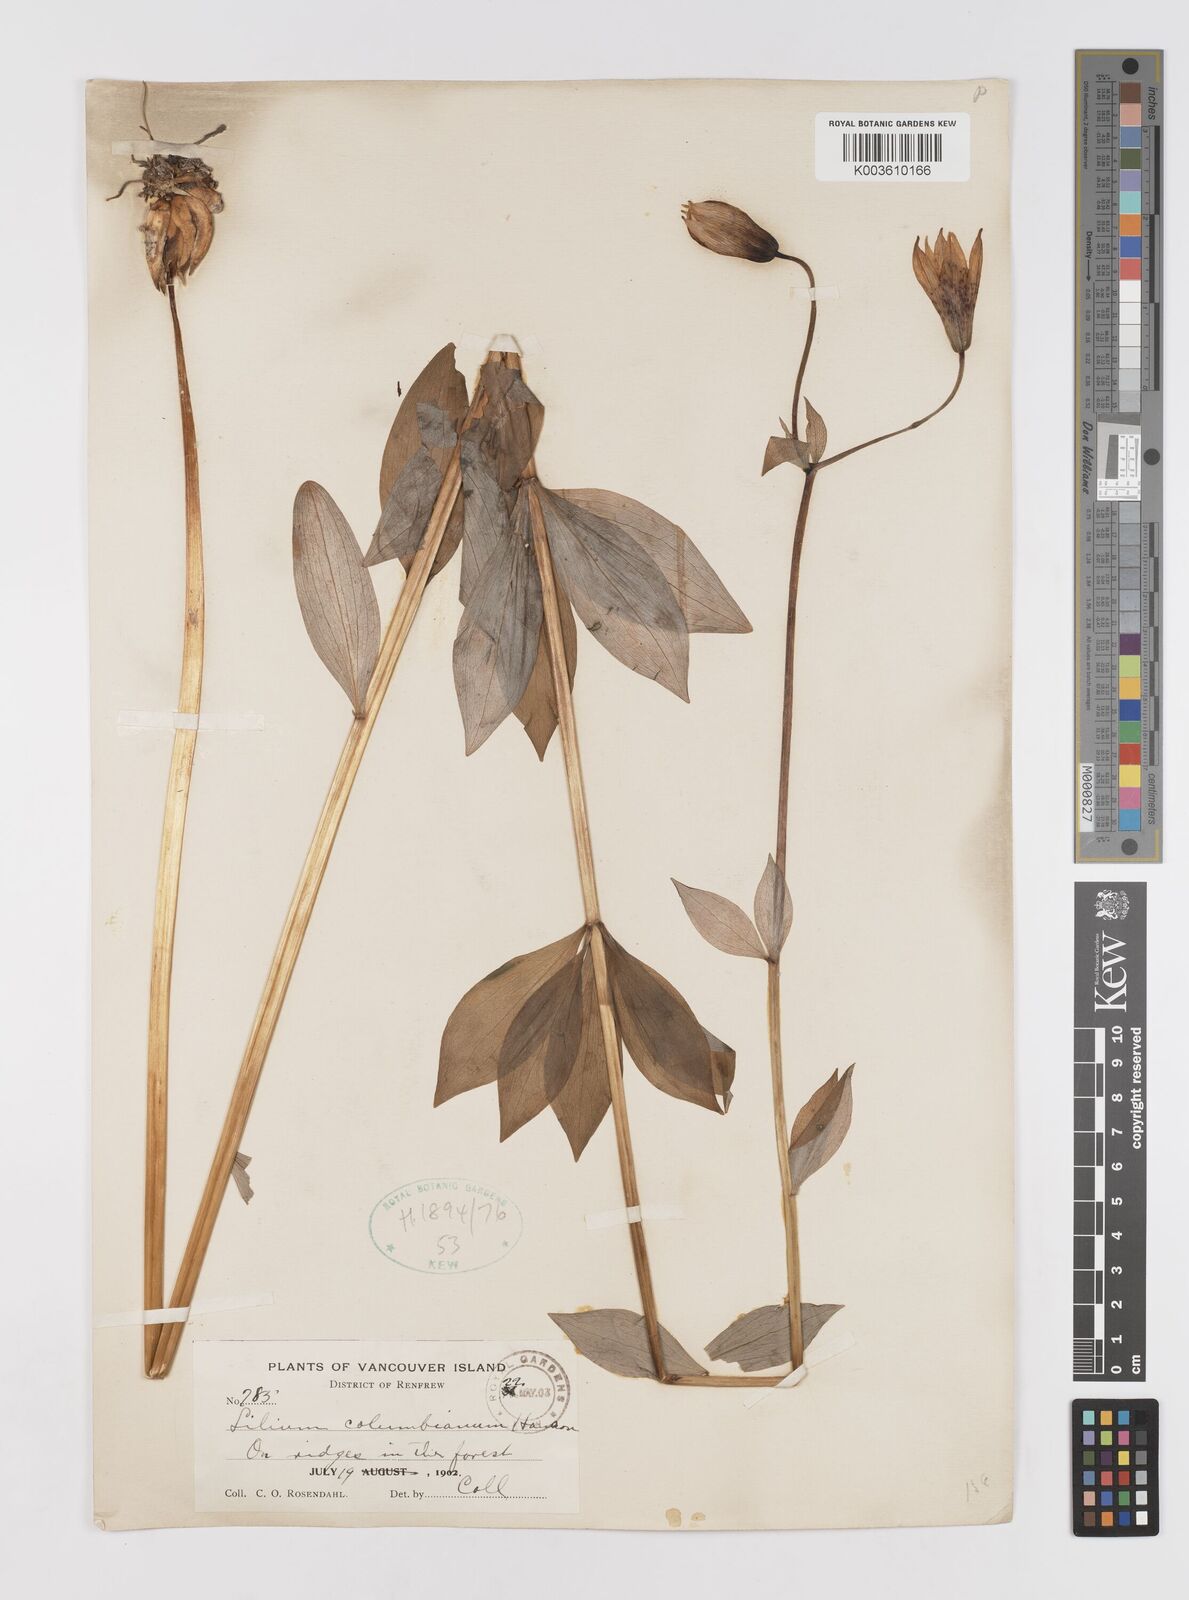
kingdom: Plantae
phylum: Tracheophyta
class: Liliopsida
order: Liliales
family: Liliaceae
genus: Lilium
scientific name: Lilium
